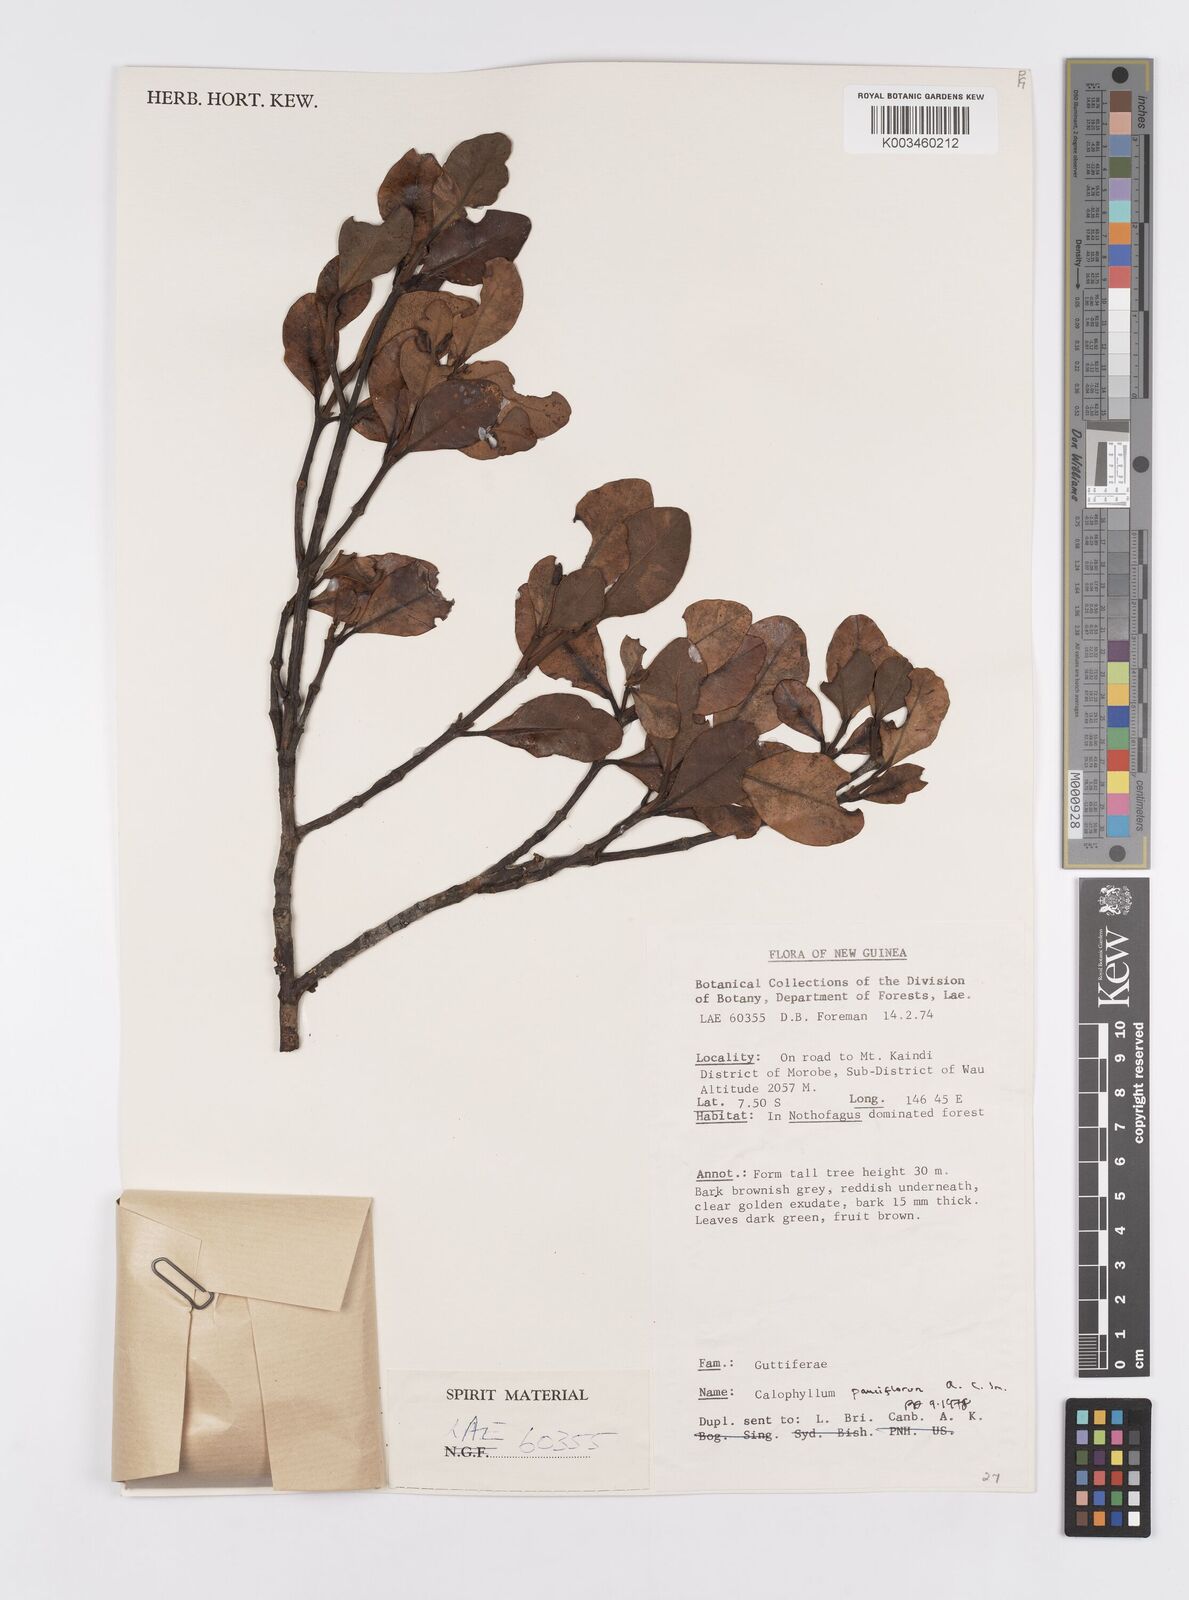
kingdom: Plantae
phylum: Tracheophyta
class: Magnoliopsida
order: Malpighiales
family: Calophyllaceae
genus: Calophyllum
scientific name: Calophyllum parviflorum
